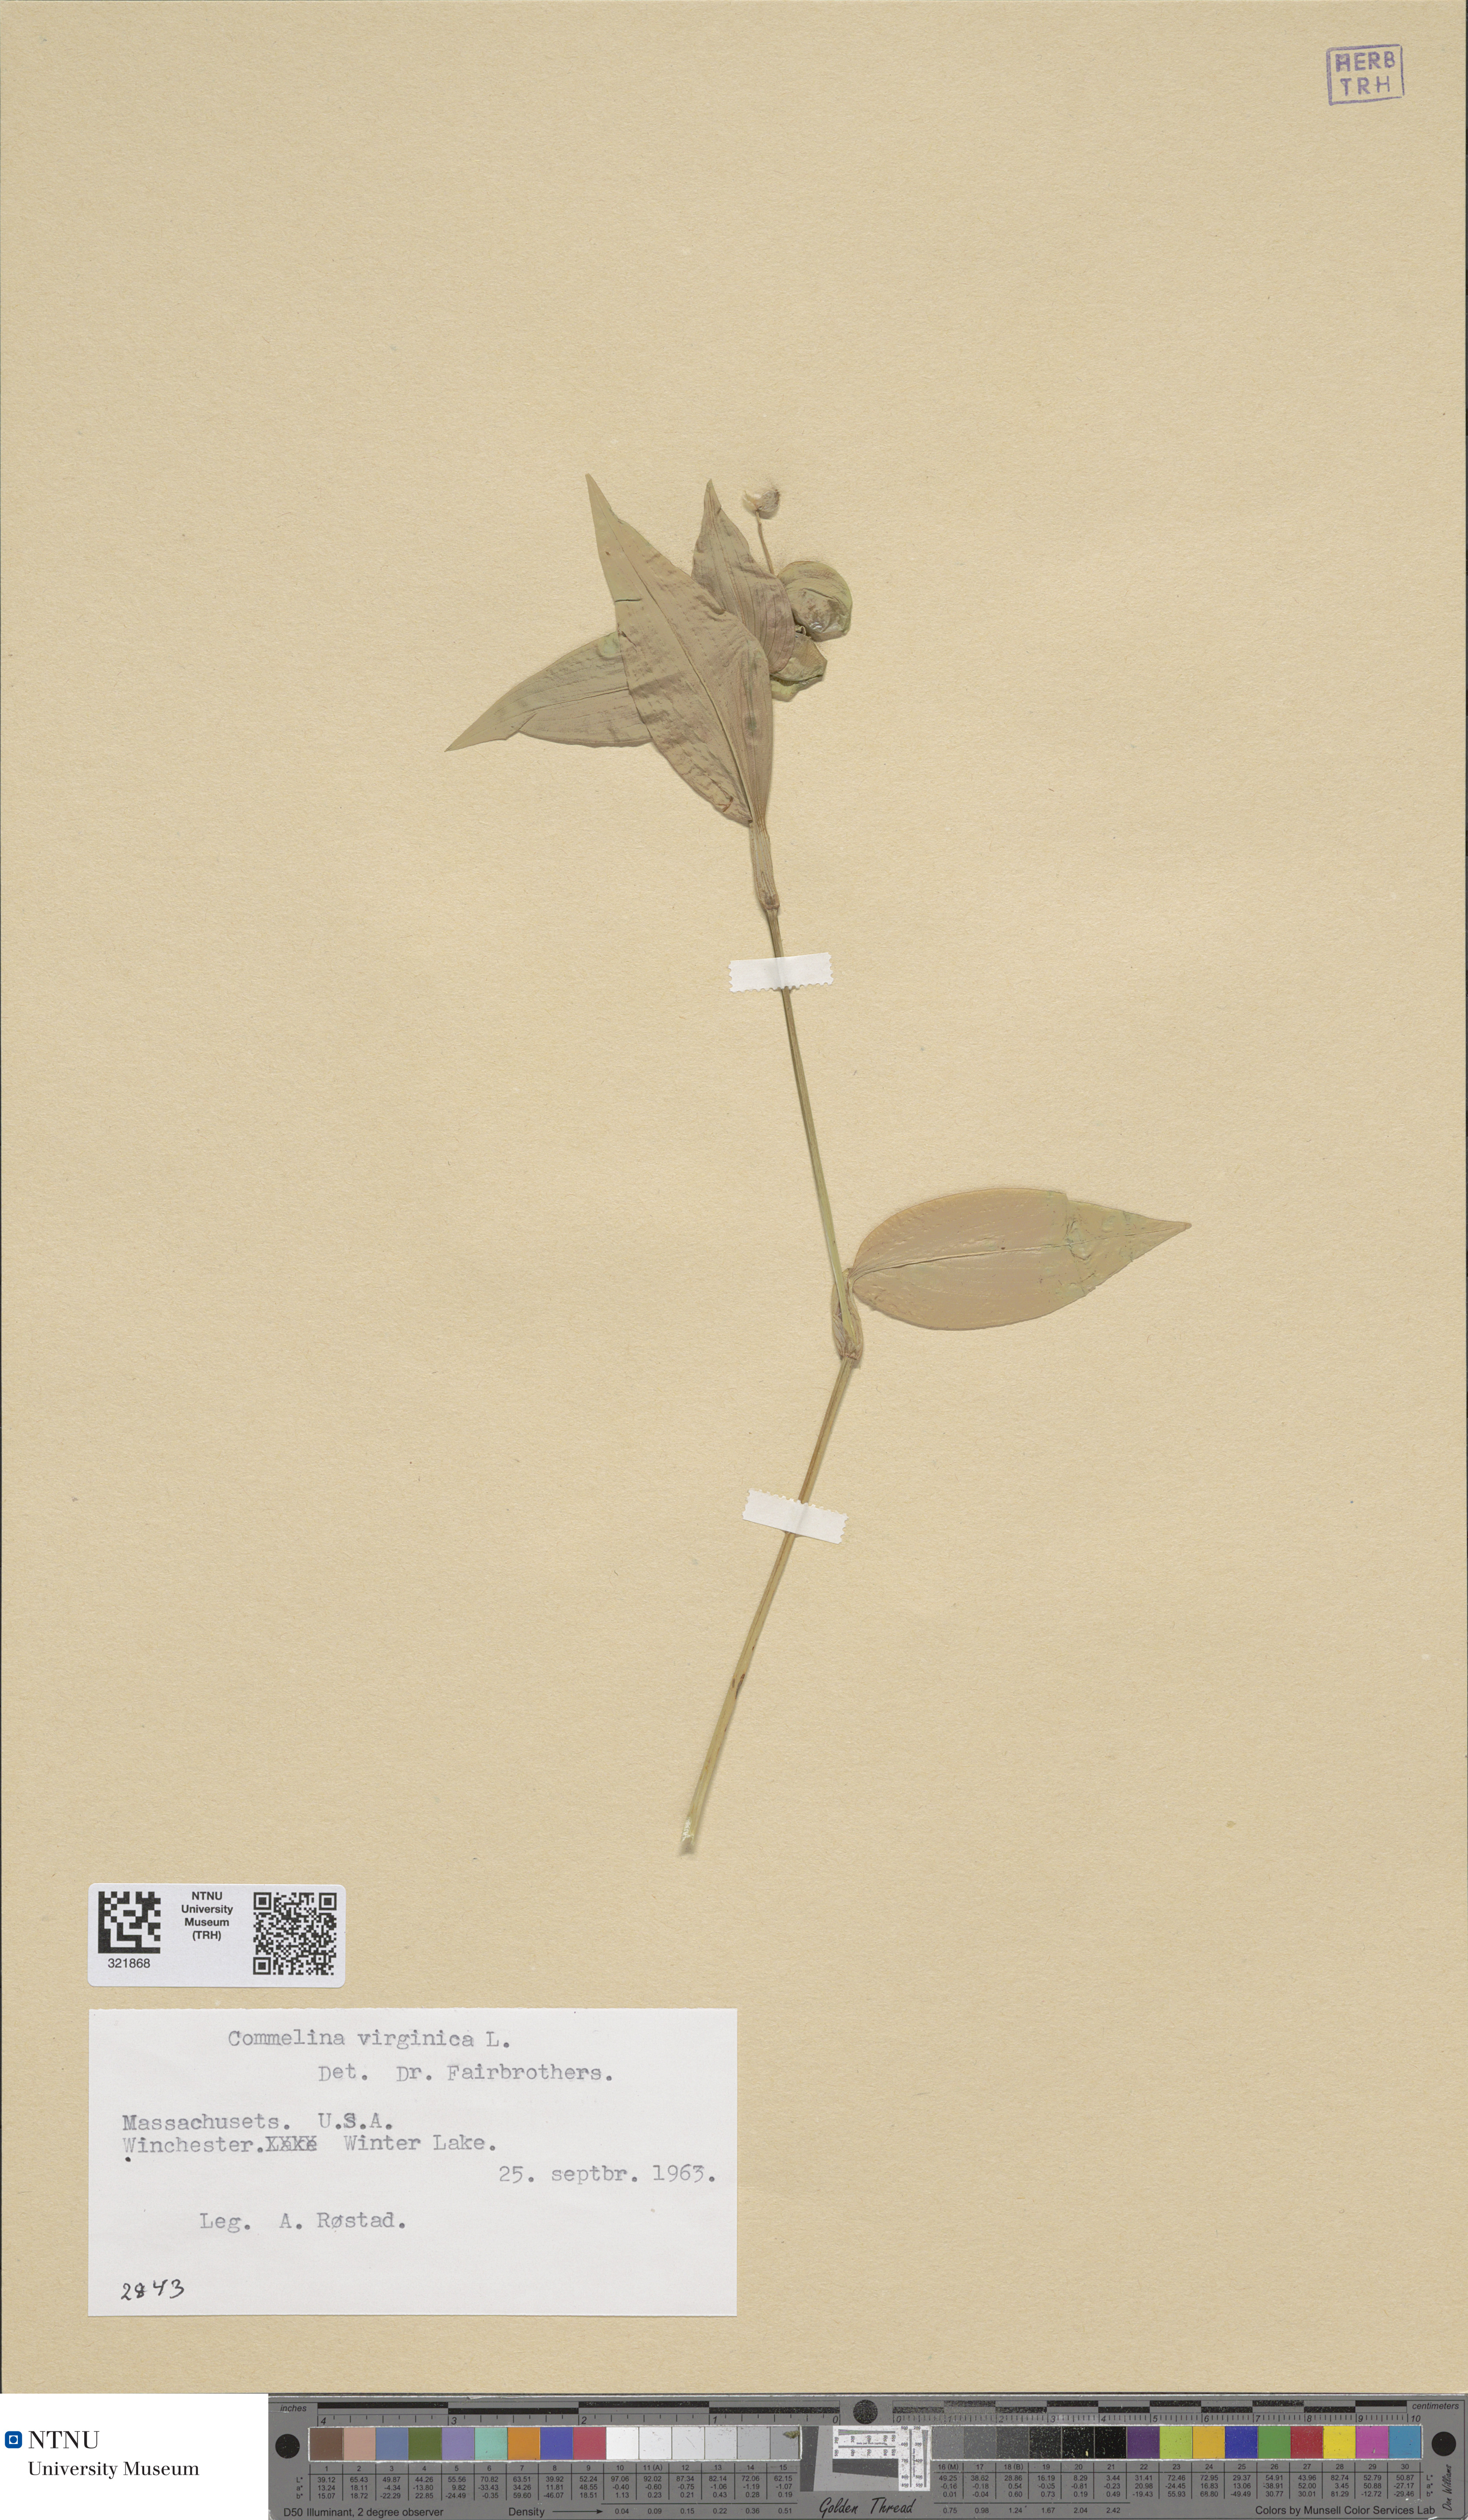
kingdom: Plantae
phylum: Tracheophyta
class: Liliopsida
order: Commelinales
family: Commelinaceae
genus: Commelina
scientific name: Commelina virginica
